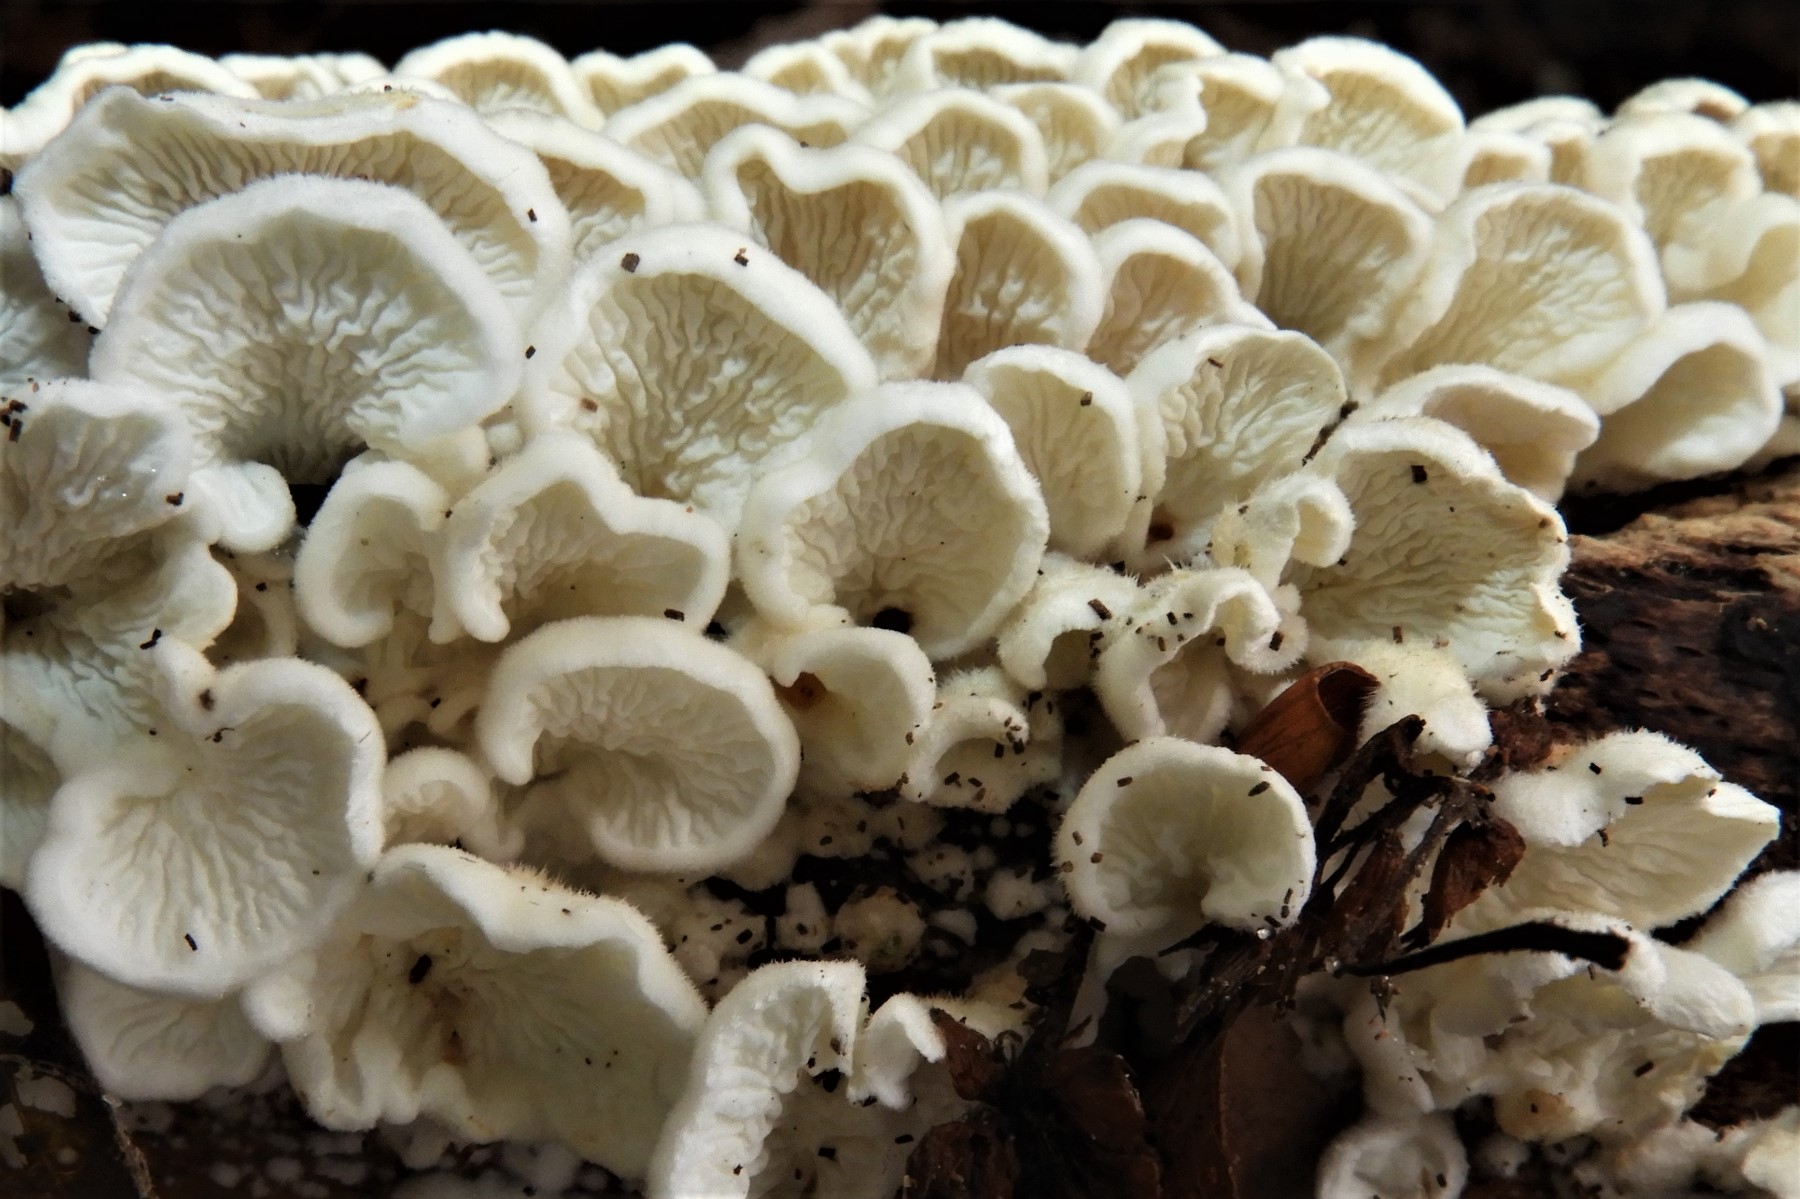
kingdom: Fungi
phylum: Basidiomycota
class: Agaricomycetes
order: Amylocorticiales
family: Amylocorticiaceae
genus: Plicaturopsis
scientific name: Plicaturopsis crispa
